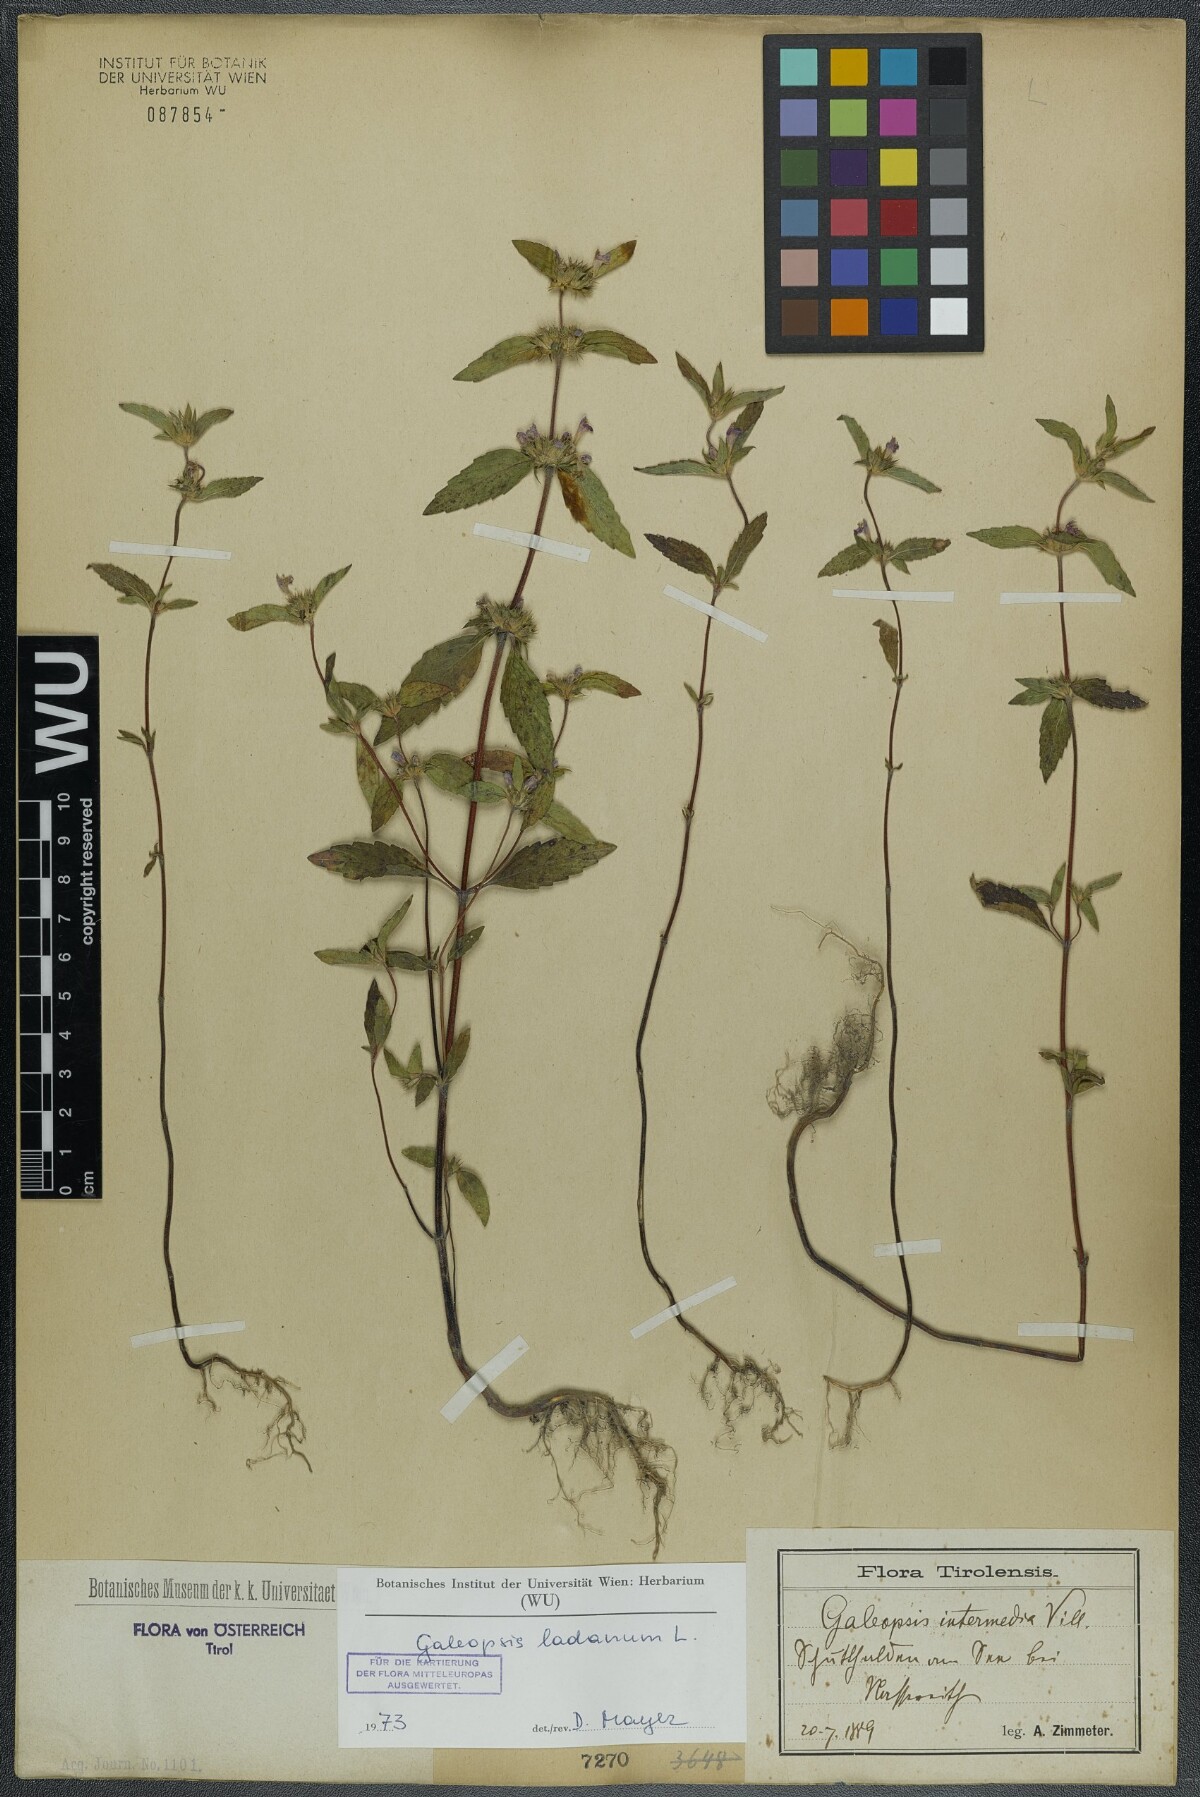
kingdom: Plantae
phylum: Tracheophyta
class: Magnoliopsida
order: Lamiales
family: Lamiaceae
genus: Galeopsis
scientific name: Galeopsis ladanum
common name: Broad-leaved hemp-nettle
